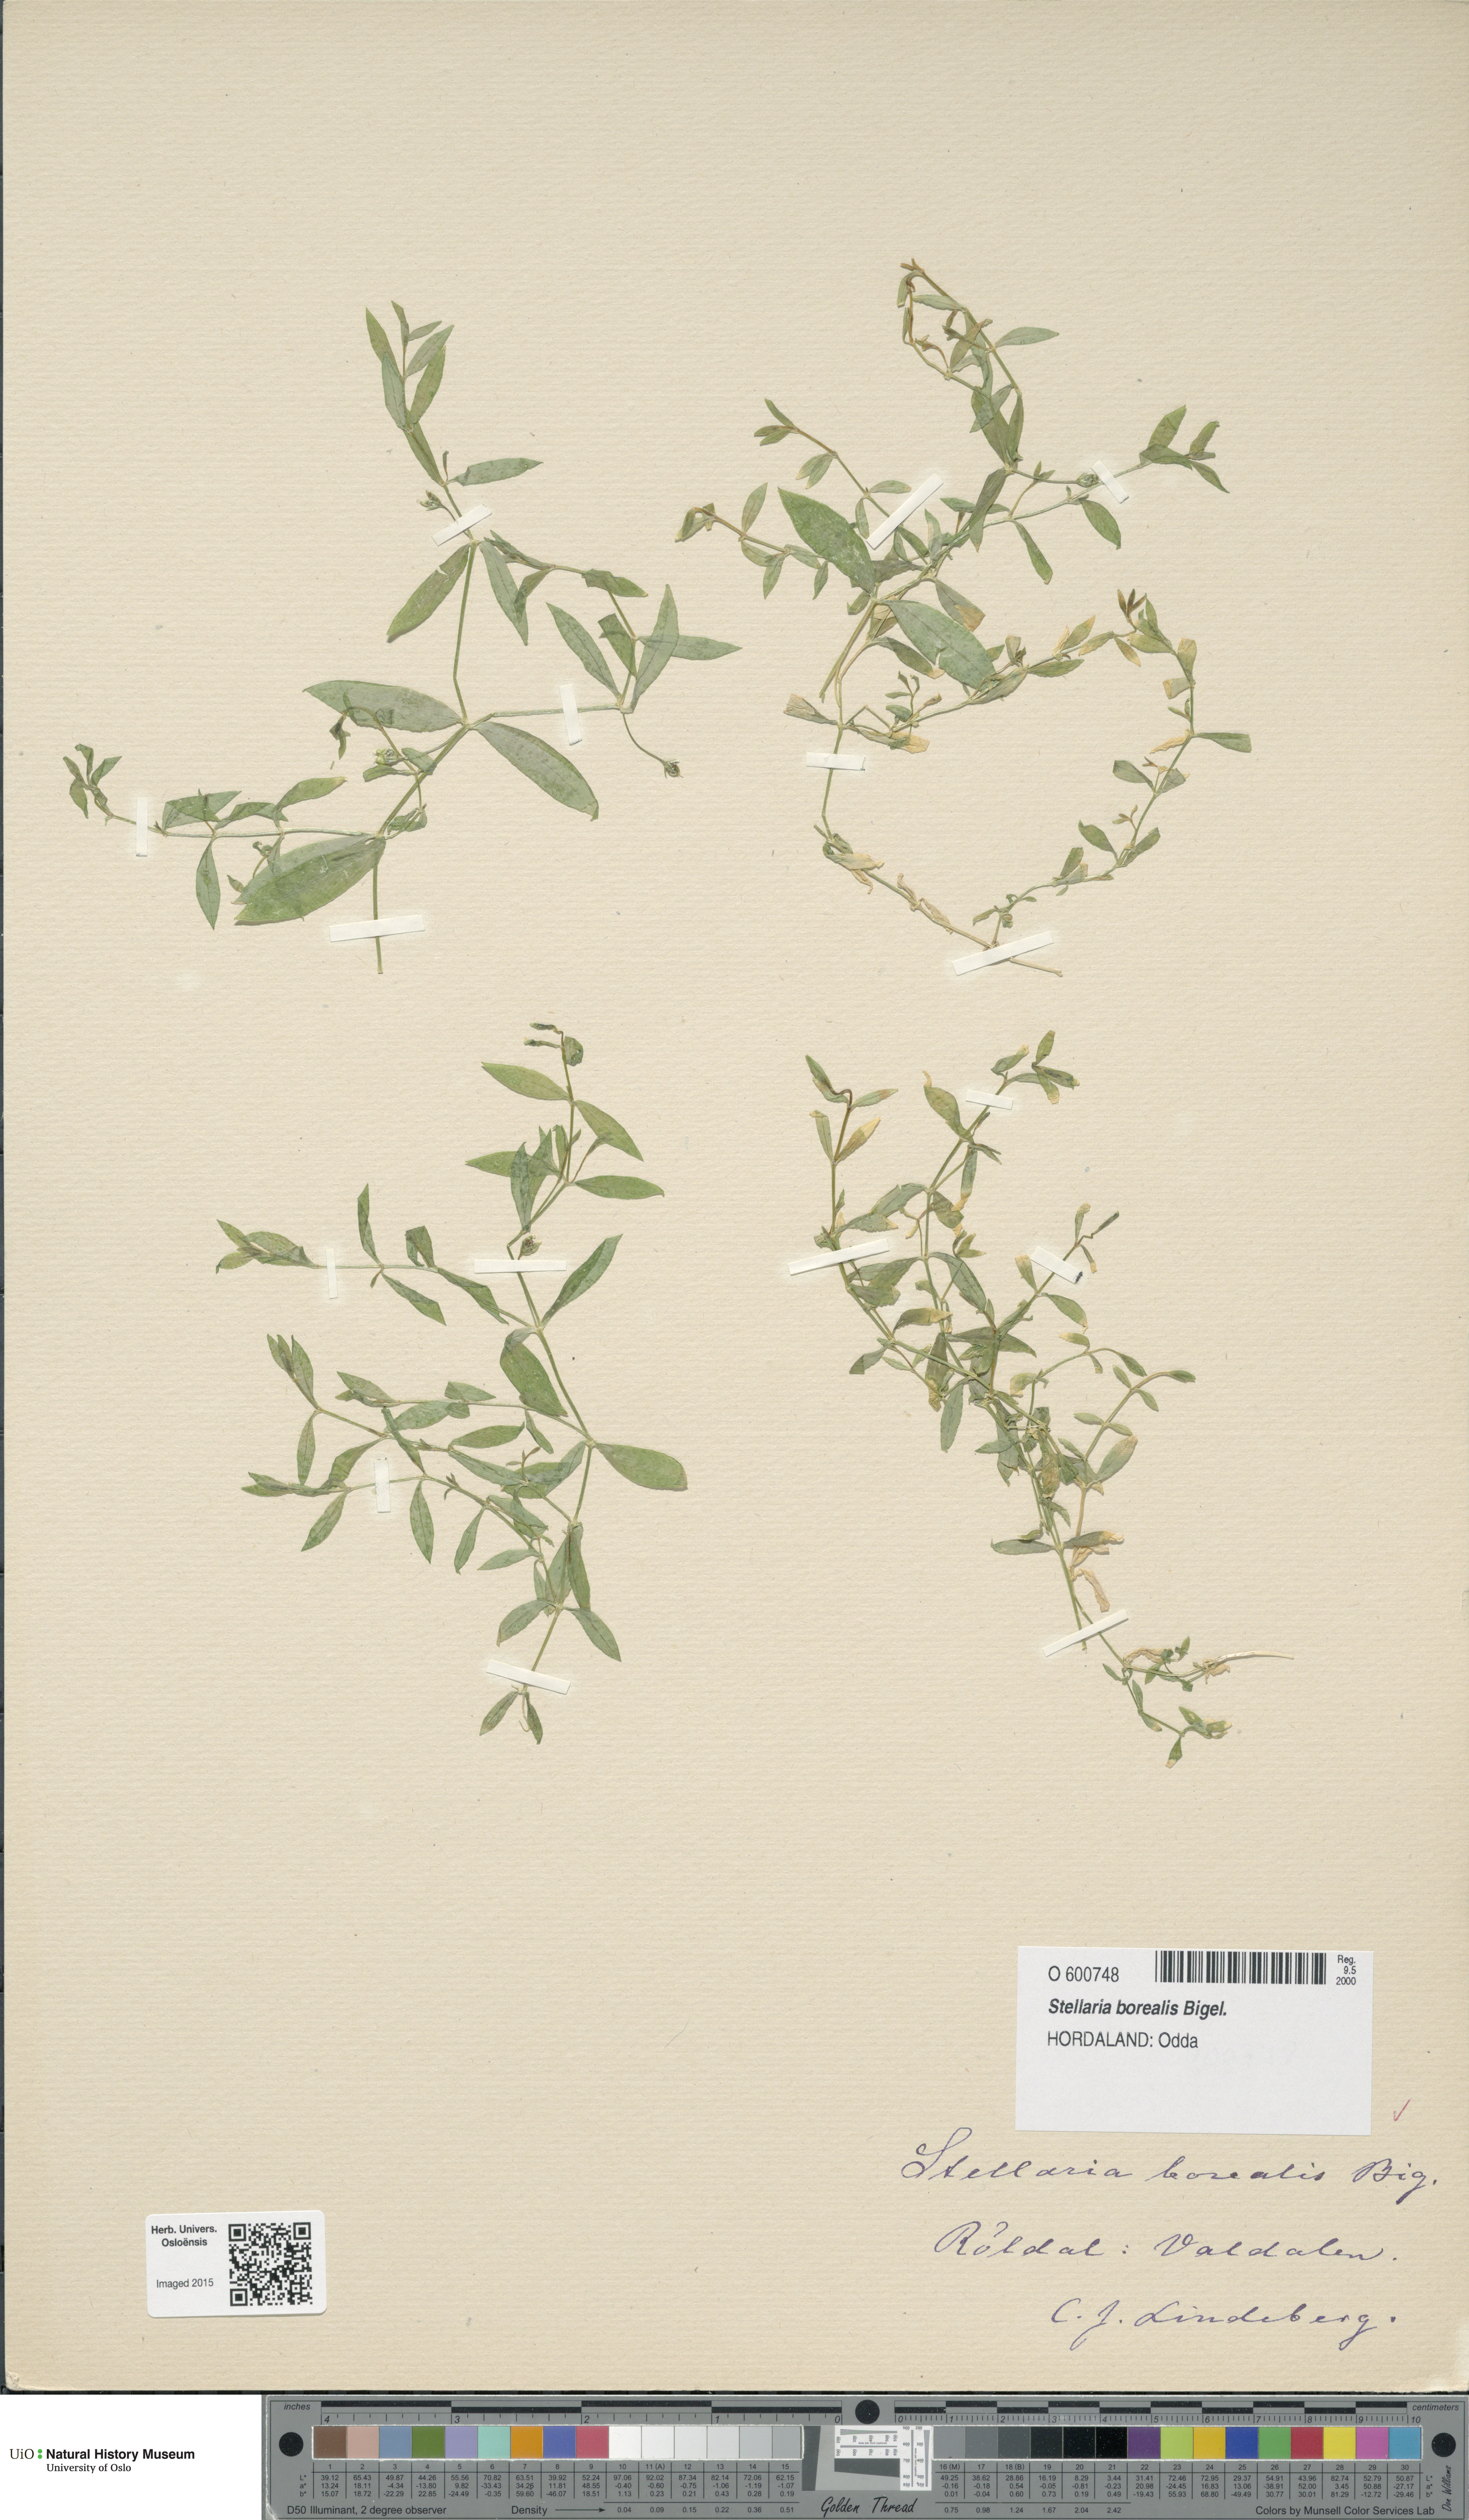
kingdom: Plantae
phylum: Tracheophyta
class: Magnoliopsida
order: Caryophyllales
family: Caryophyllaceae
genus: Stellaria
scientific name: Stellaria borealis
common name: Boreal starwort
